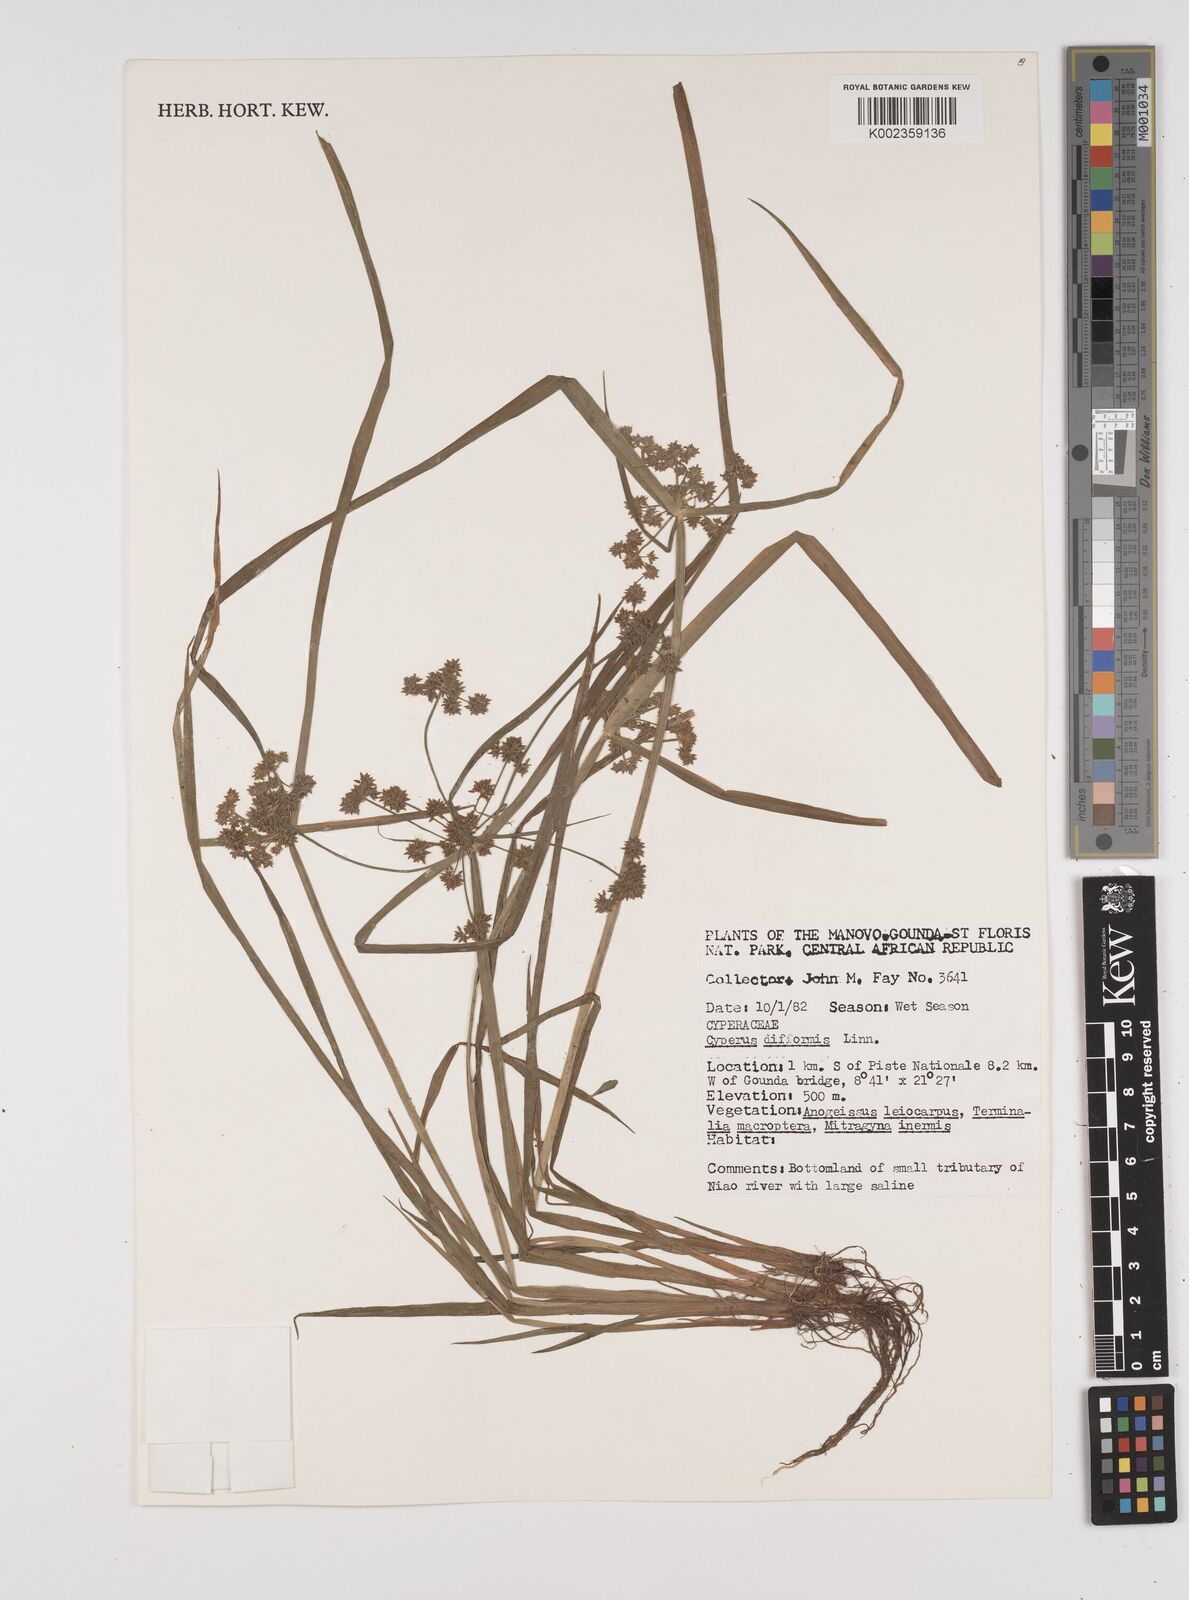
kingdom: Plantae
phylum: Tracheophyta
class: Liliopsida
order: Poales
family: Cyperaceae
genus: Cyperus
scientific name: Cyperus difformis
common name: Variable flatsedge
